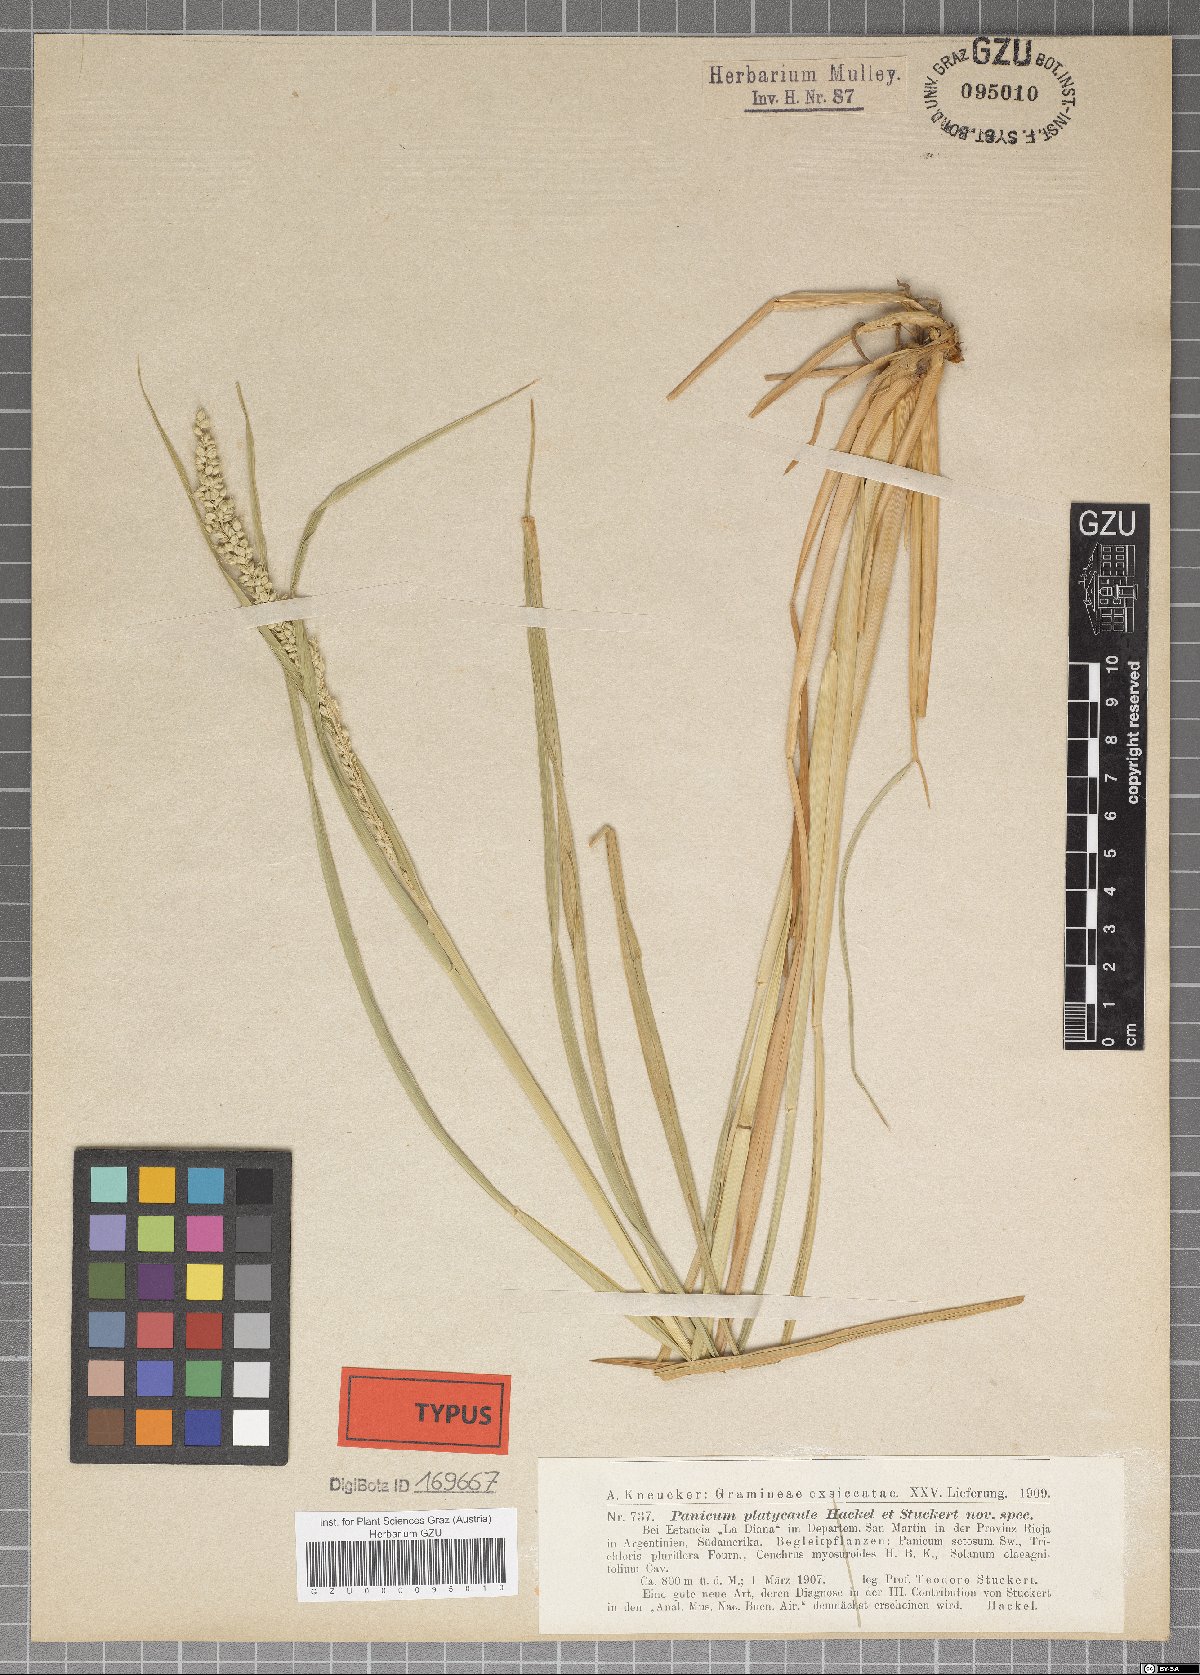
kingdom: Plantae
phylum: Tracheophyta
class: Liliopsida
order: Poales
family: Poaceae
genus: Setaria
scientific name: Setaria cordobensis
